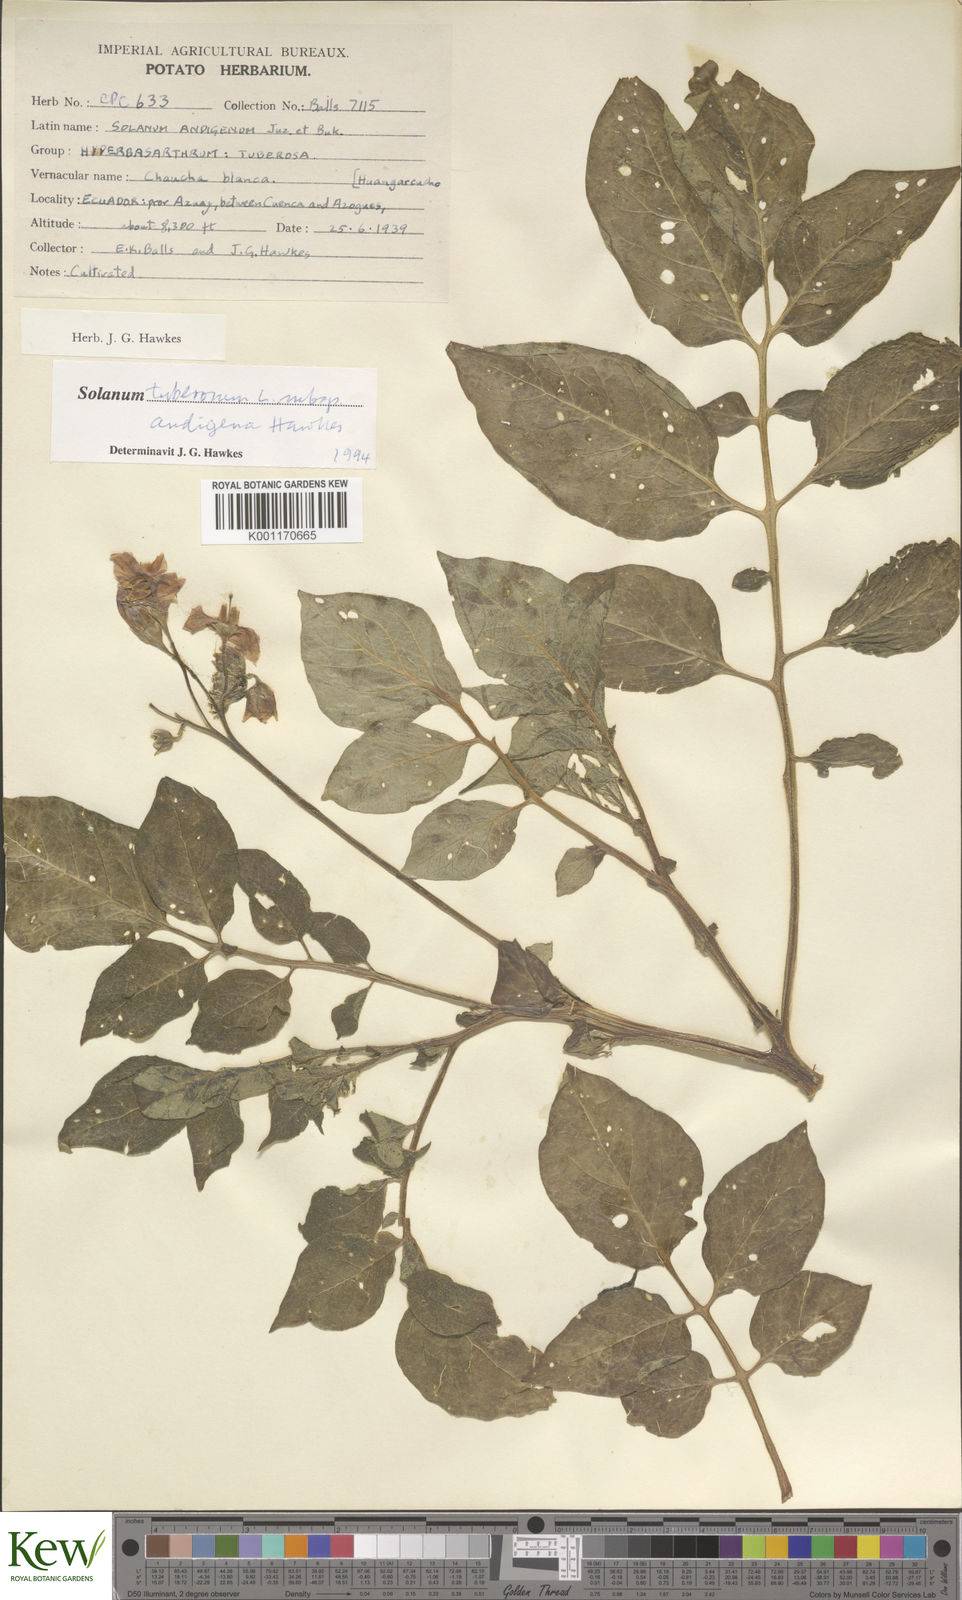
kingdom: Plantae
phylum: Tracheophyta
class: Magnoliopsida
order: Solanales
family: Solanaceae
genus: Solanum
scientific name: Solanum tuberosum
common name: Potato
